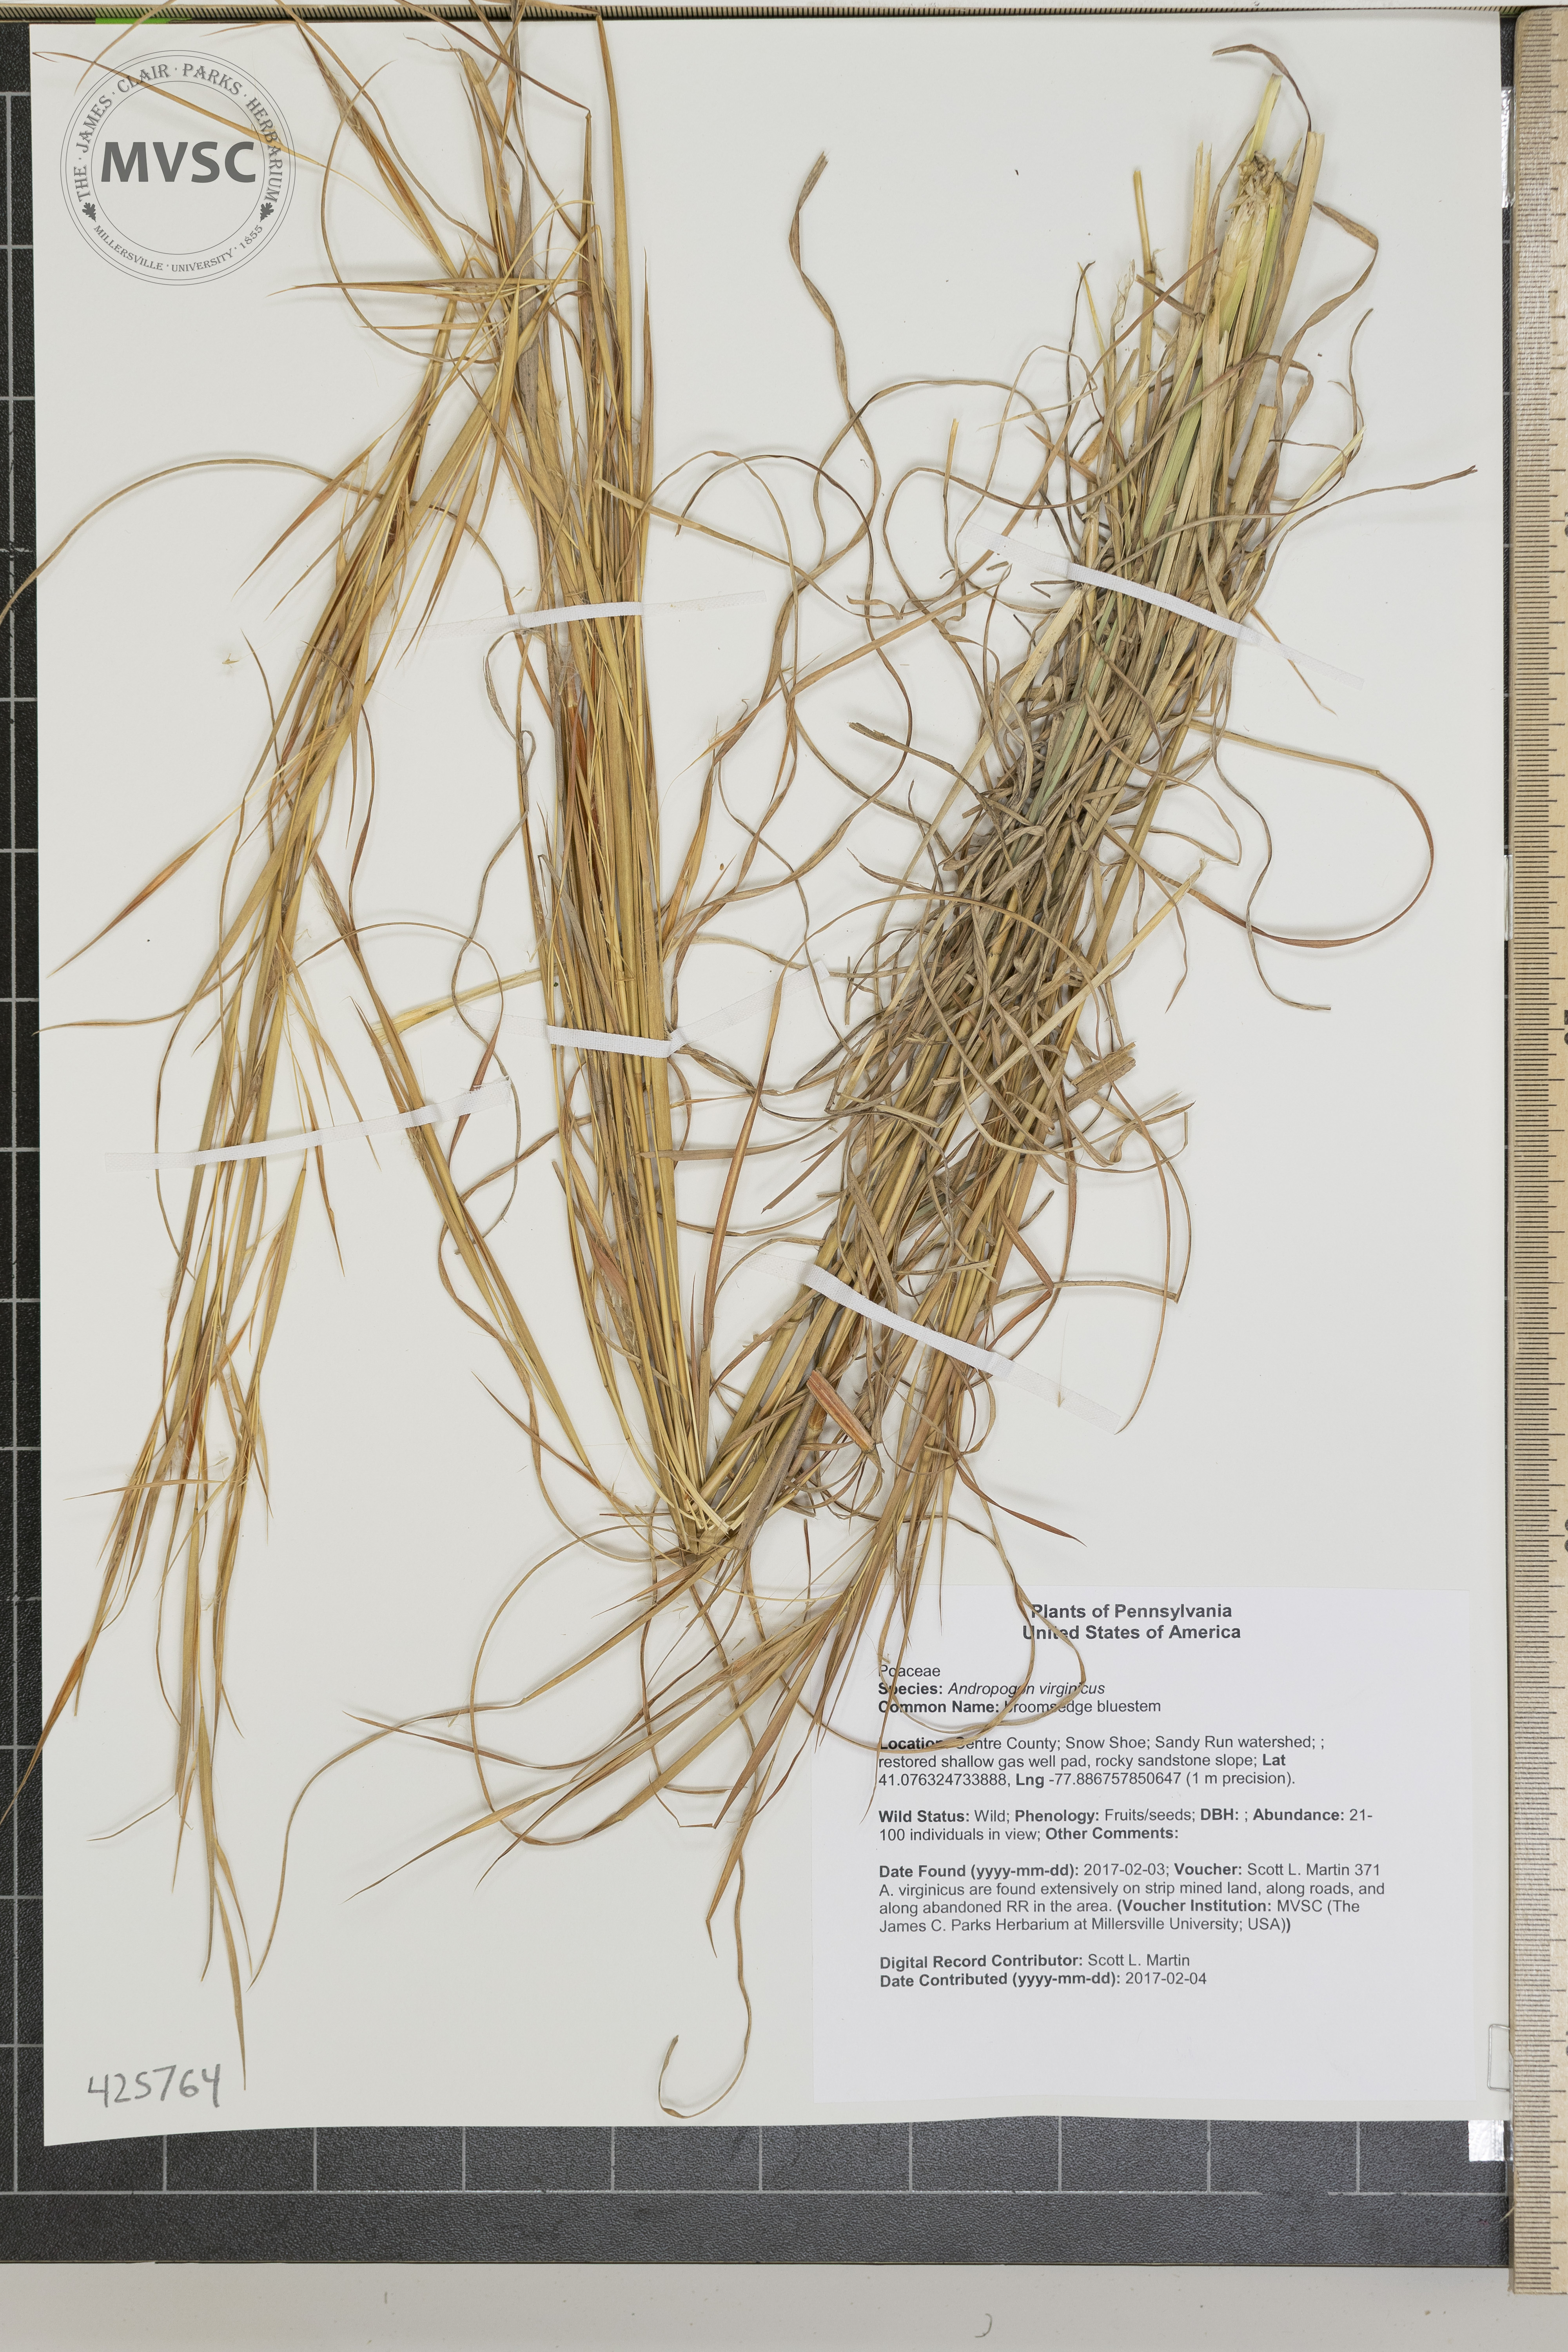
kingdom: Plantae
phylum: Tracheophyta
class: Liliopsida
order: Poales
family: Poaceae
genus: Andropogon
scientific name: Andropogon virginicus
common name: broomsedge bluestem
